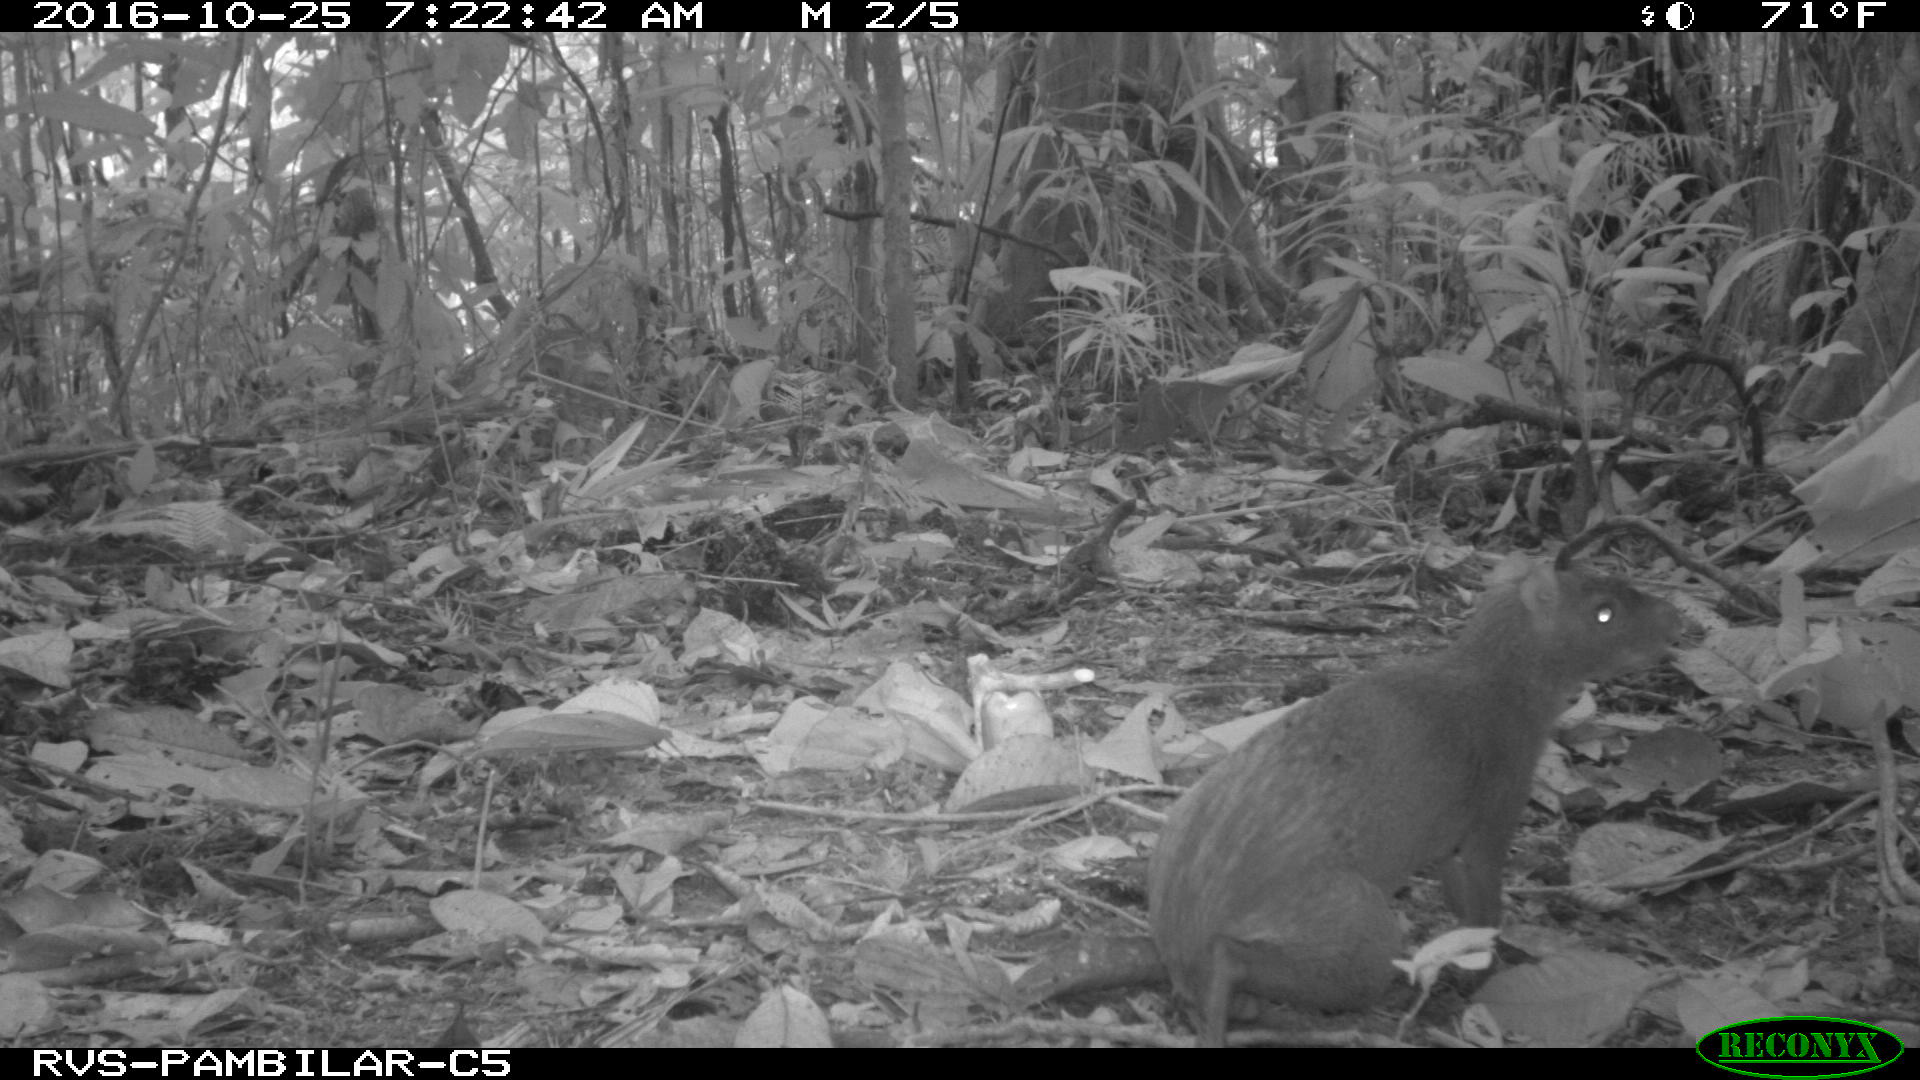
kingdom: Animalia
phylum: Chordata
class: Mammalia
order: Rodentia
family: Dasyproctidae
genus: Dasyprocta
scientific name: Dasyprocta punctata
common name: Central american agouti
